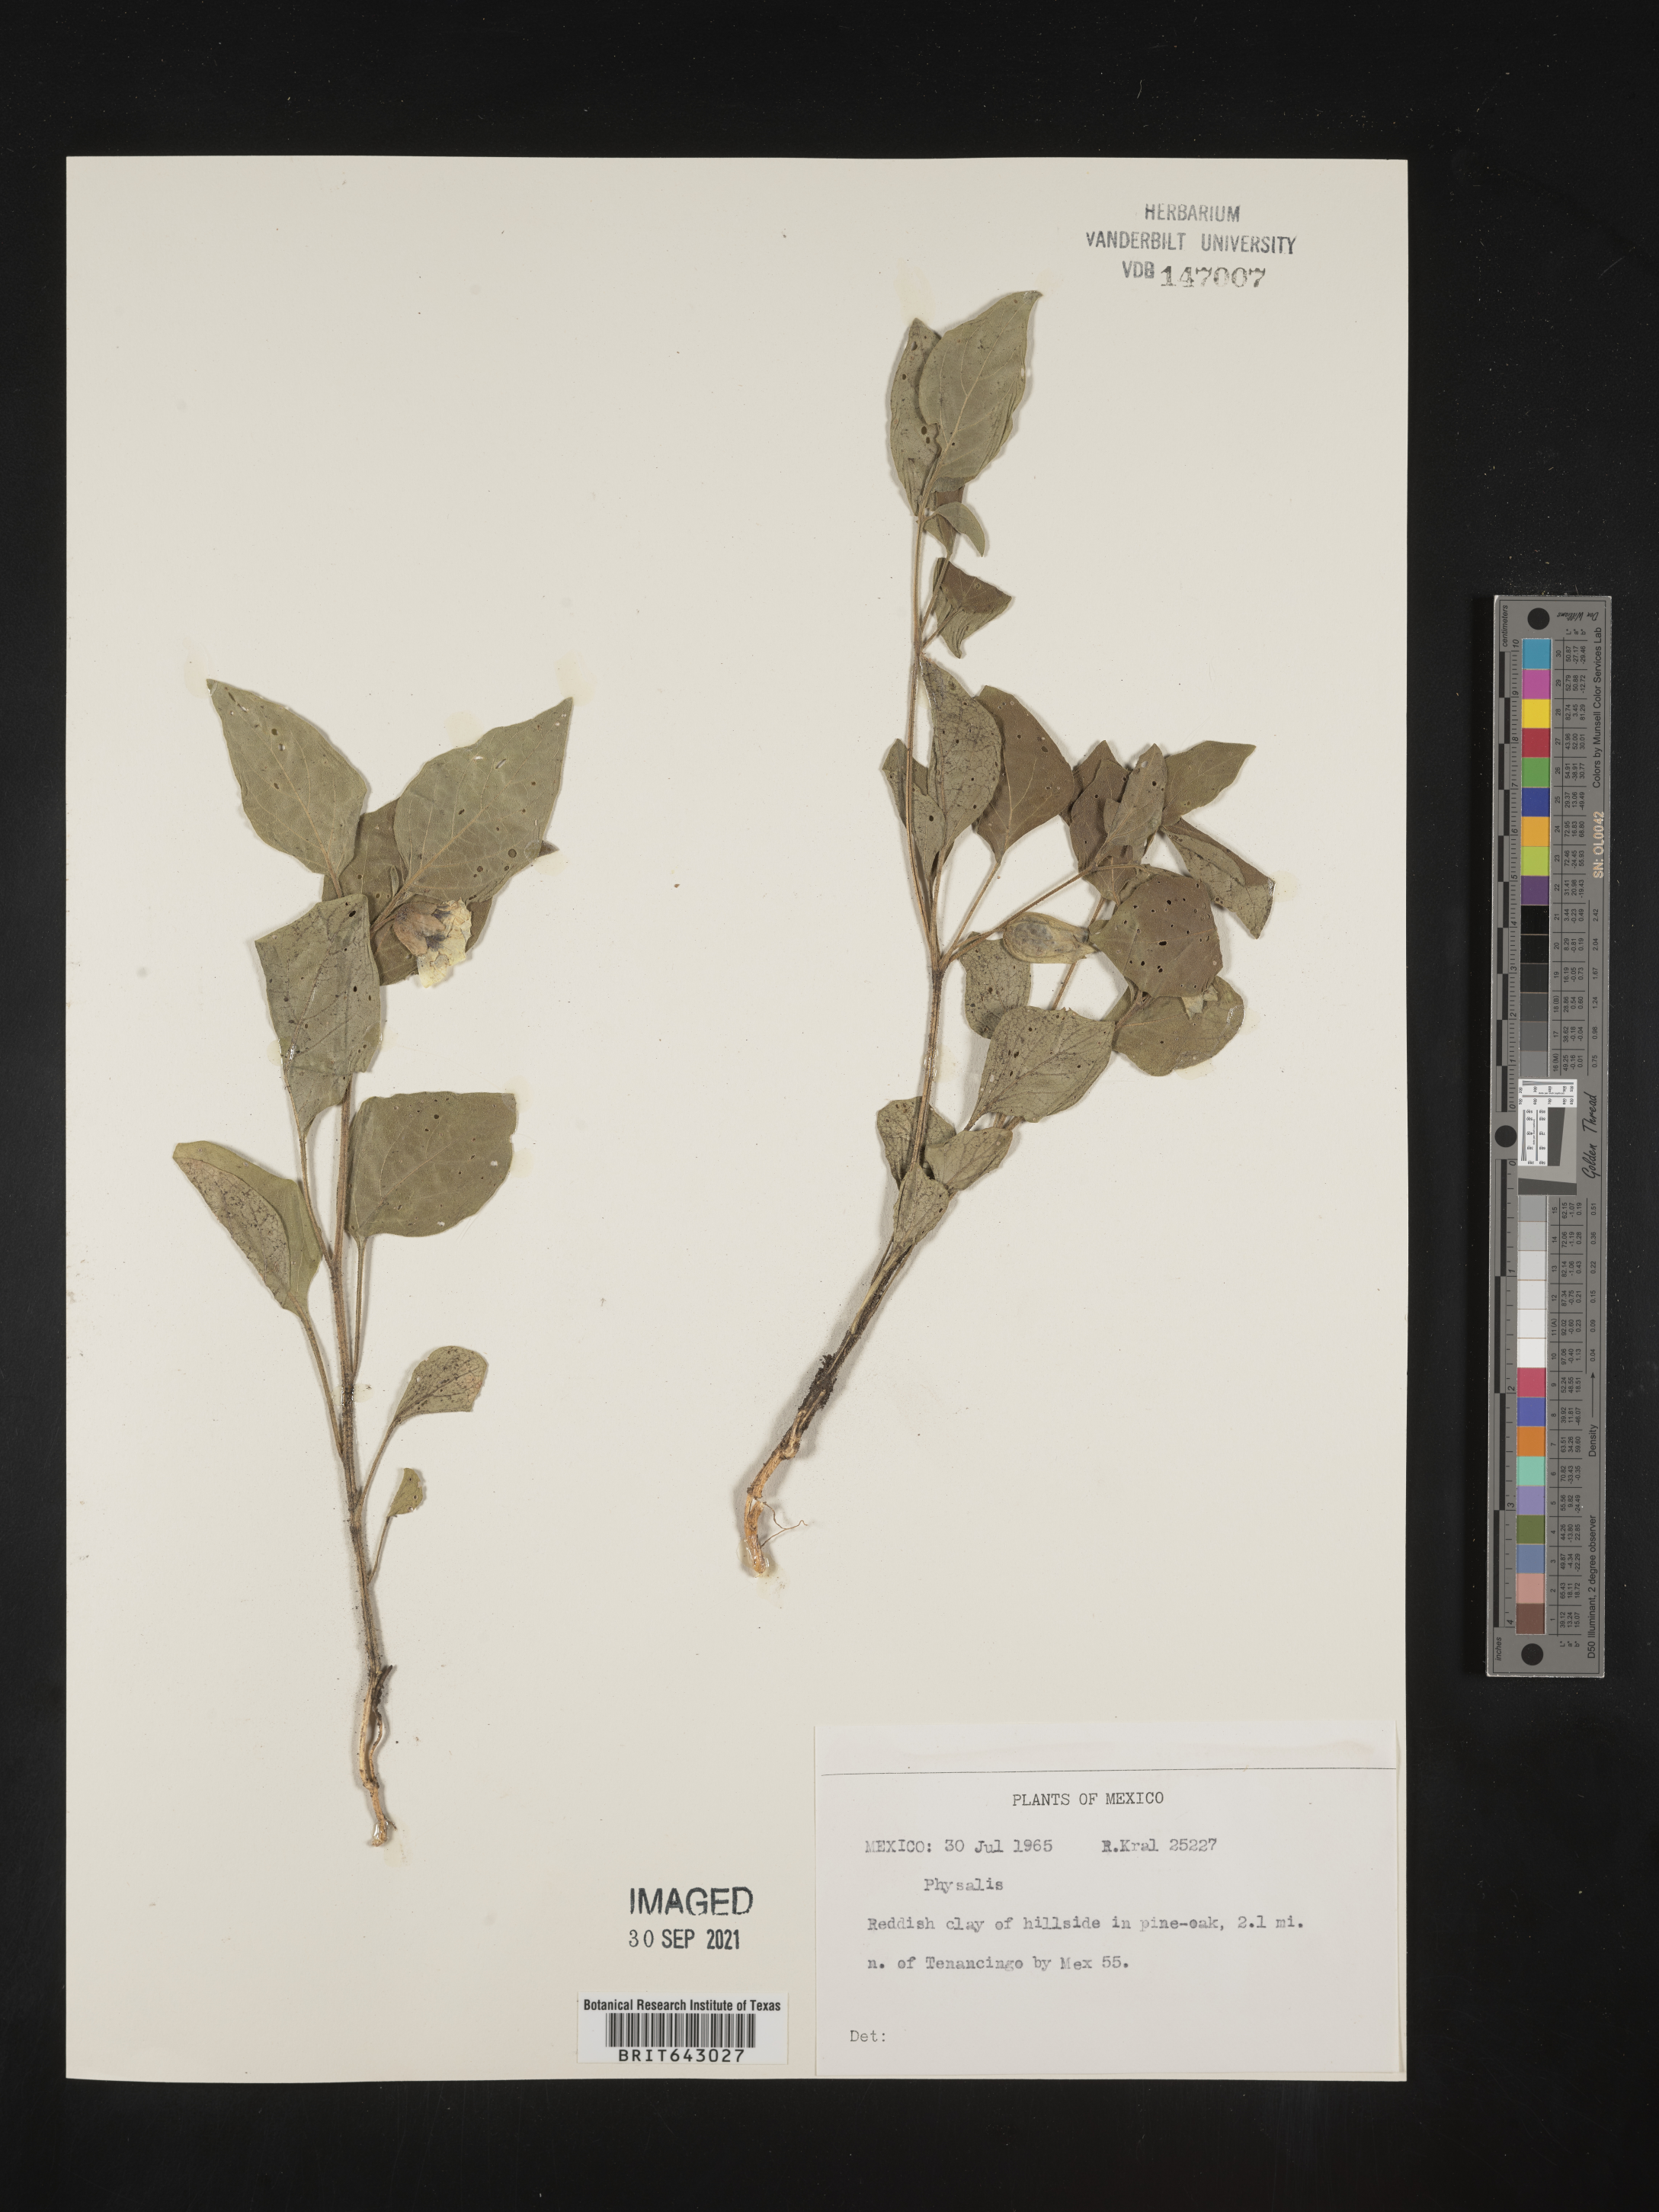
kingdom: Plantae
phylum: Tracheophyta
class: Magnoliopsida
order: Solanales
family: Solanaceae
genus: Physalis
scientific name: Physalis
